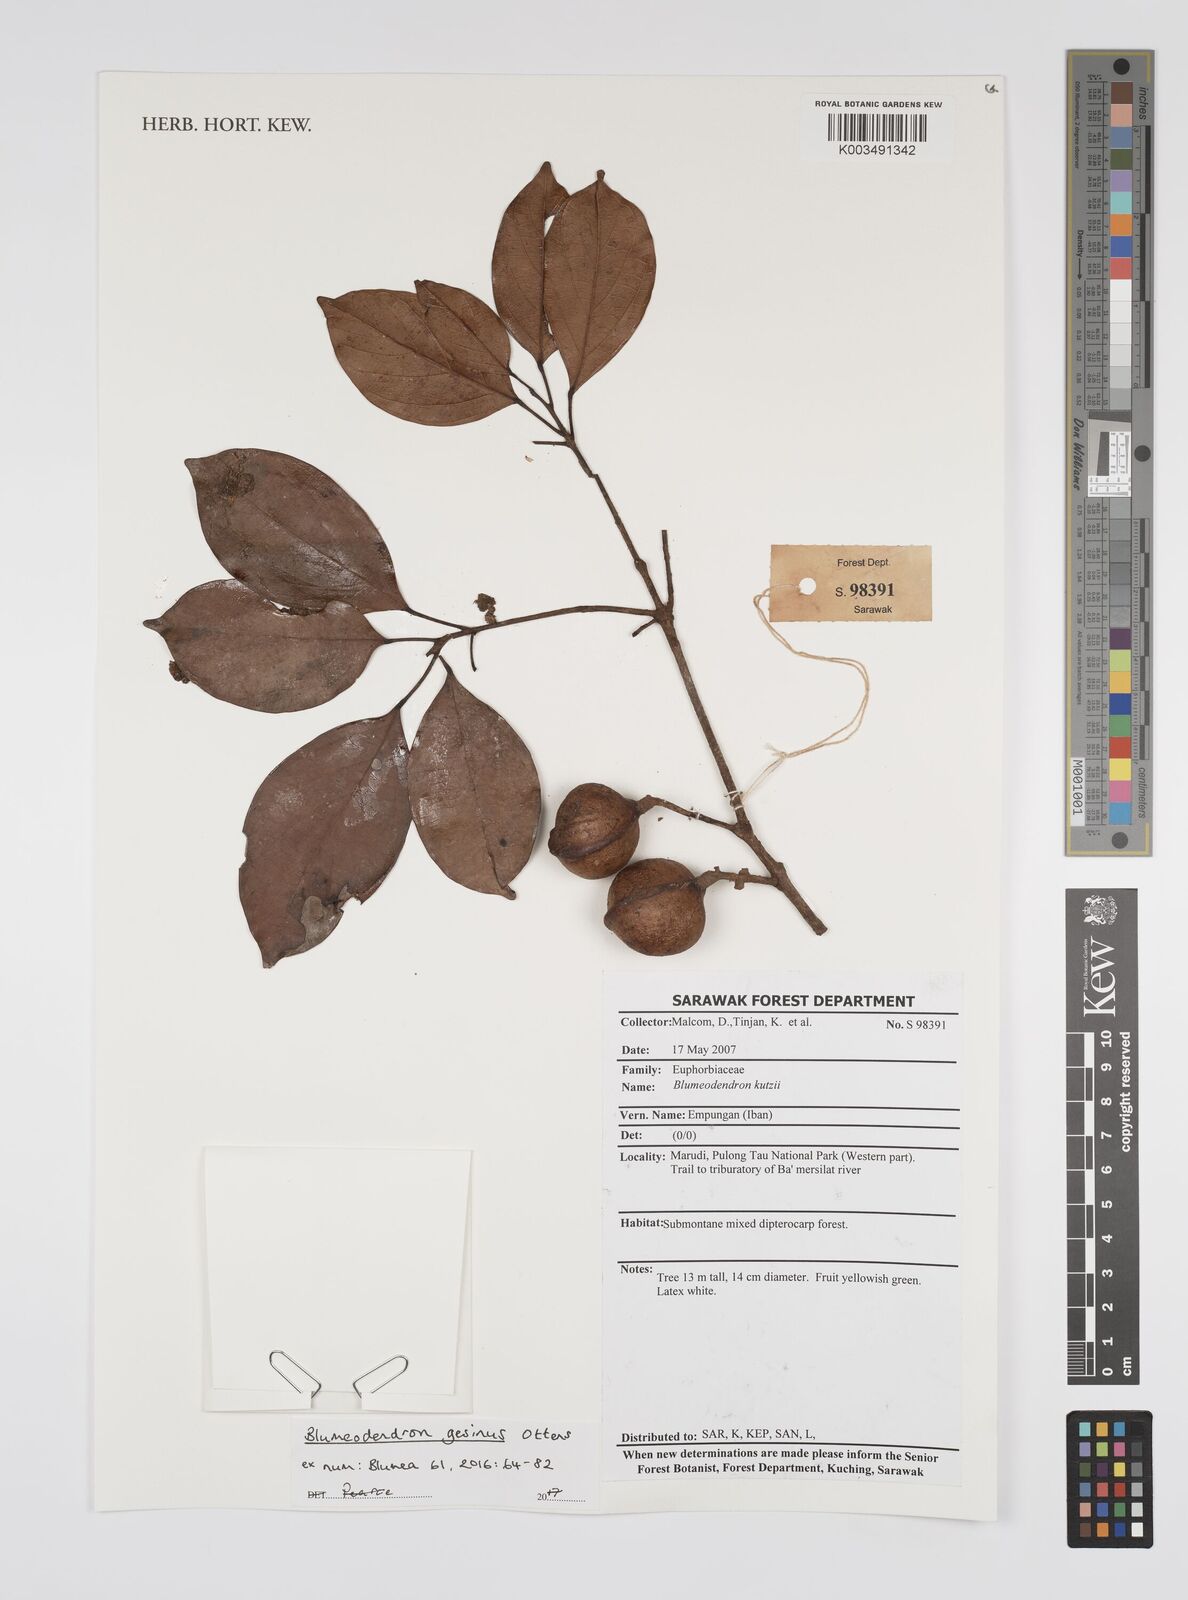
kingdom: Plantae
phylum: Tracheophyta
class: Magnoliopsida
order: Malpighiales
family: Euphorbiaceae
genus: Blumeodendron
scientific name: Blumeodendron gesinus
